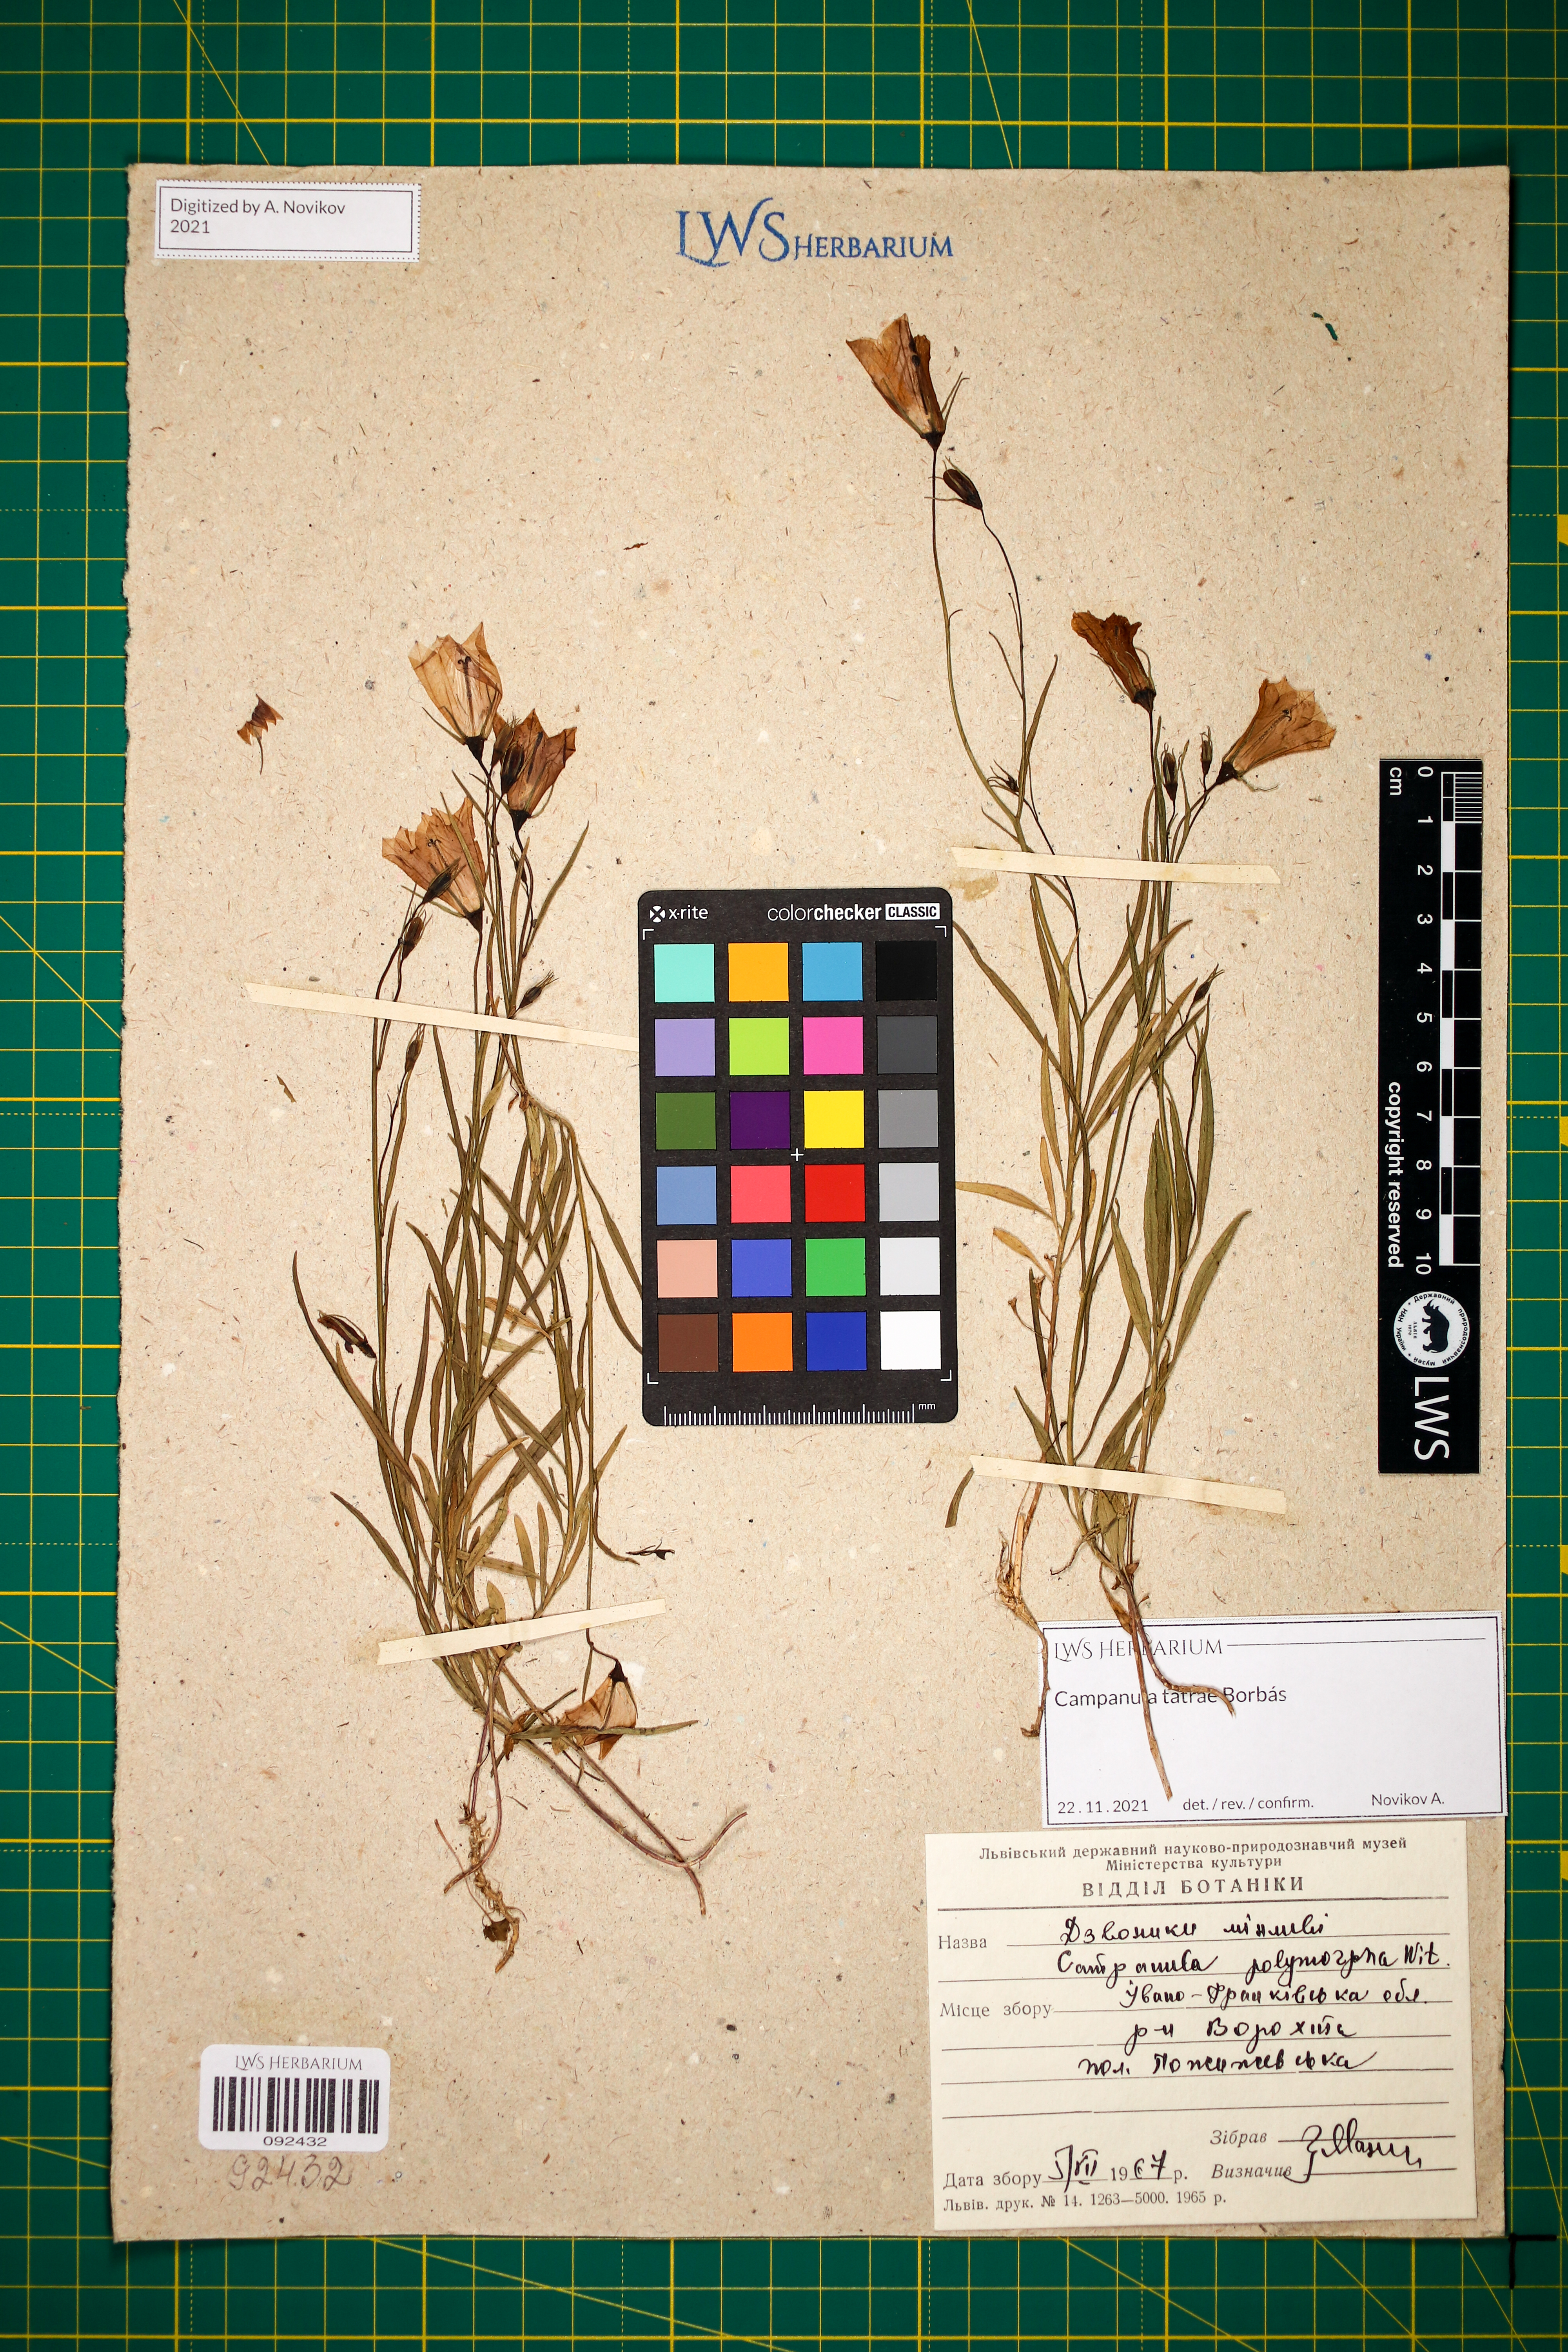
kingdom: Plantae
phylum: Tracheophyta
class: Magnoliopsida
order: Asterales
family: Campanulaceae
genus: Campanula
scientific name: Campanula tatrae
